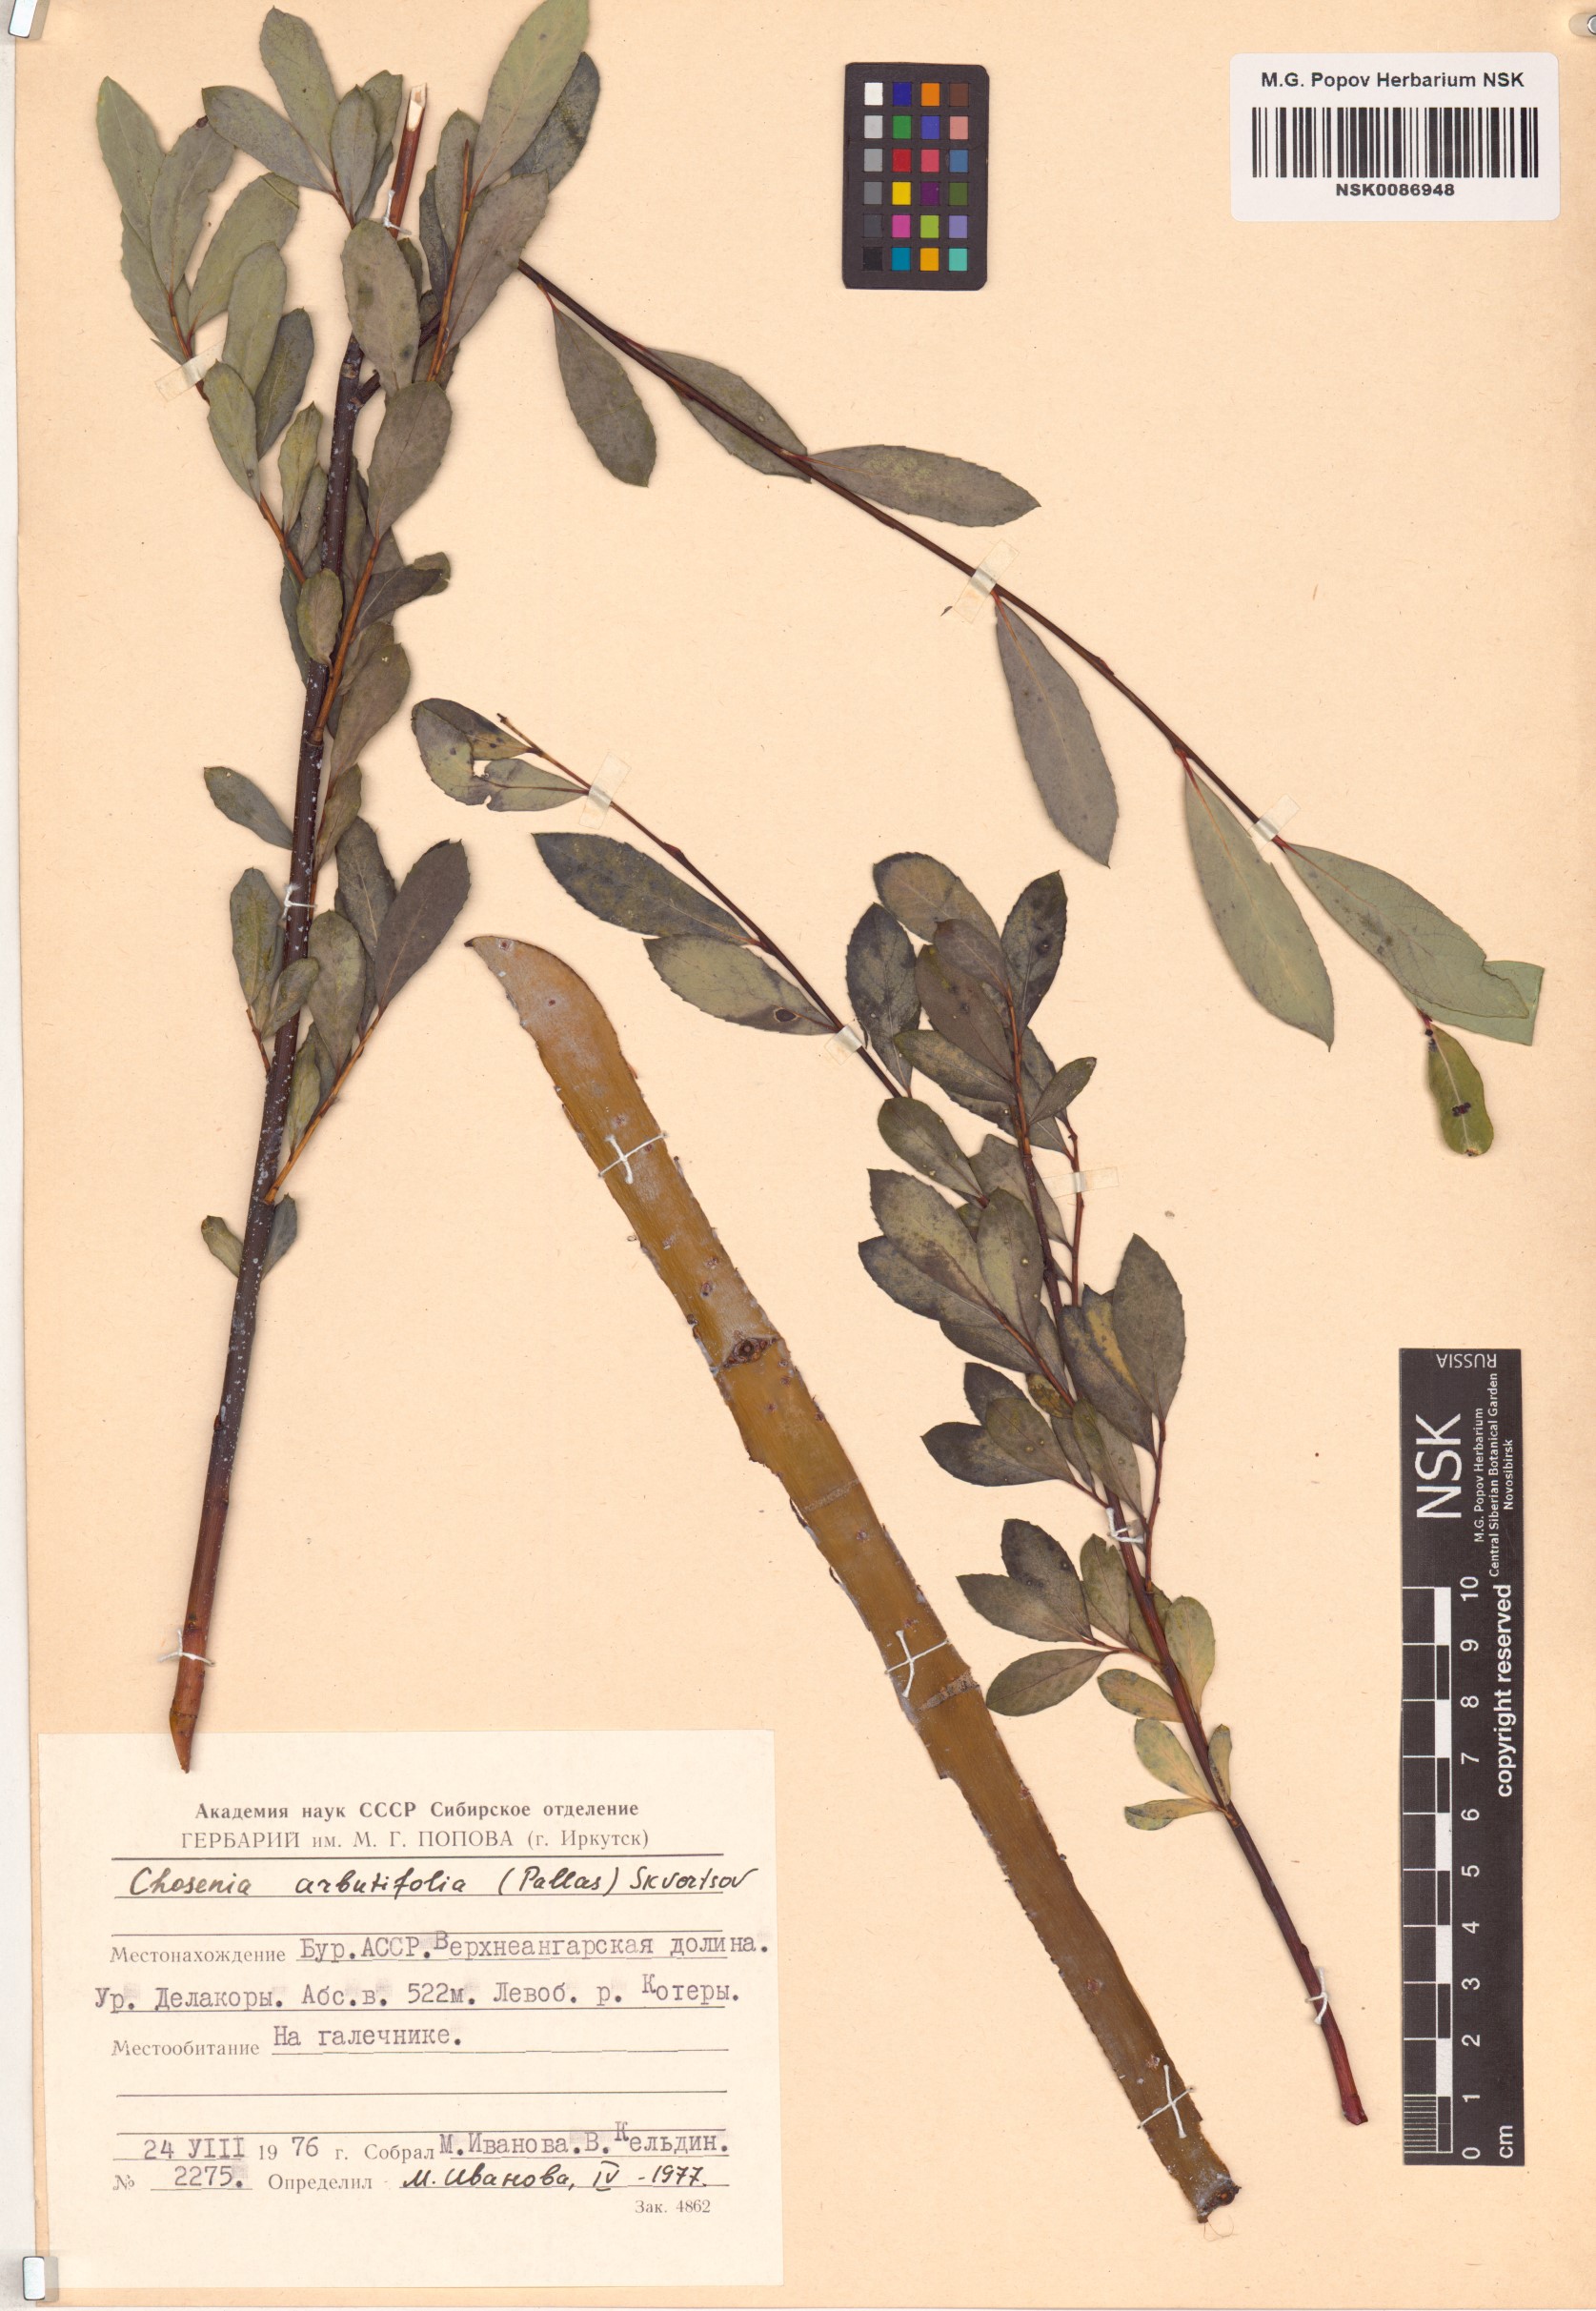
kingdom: Plantae
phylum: Tracheophyta
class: Magnoliopsida
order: Malpighiales
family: Salicaceae
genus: Chosenia
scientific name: Chosenia arbutifolia
